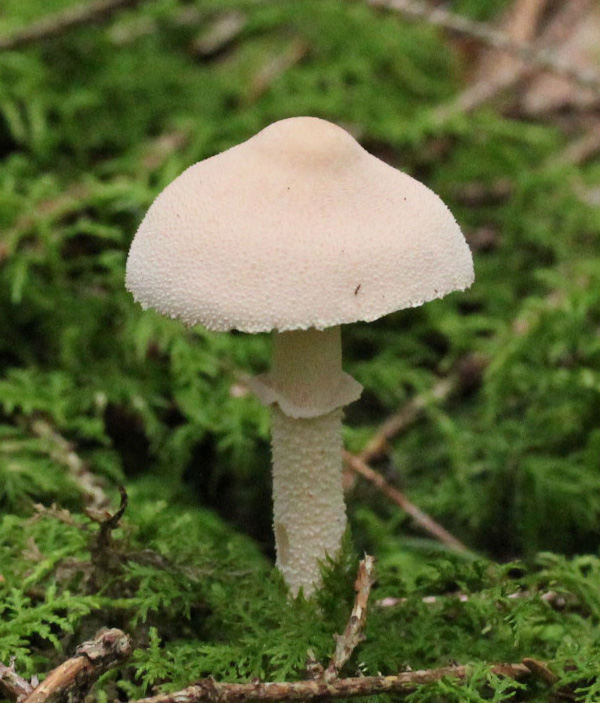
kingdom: Fungi
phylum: Basidiomycota
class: Agaricomycetes
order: Agaricales
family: Tricholomataceae
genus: Cystoderma
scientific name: Cystoderma carcharias
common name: rødgrå grynhat
